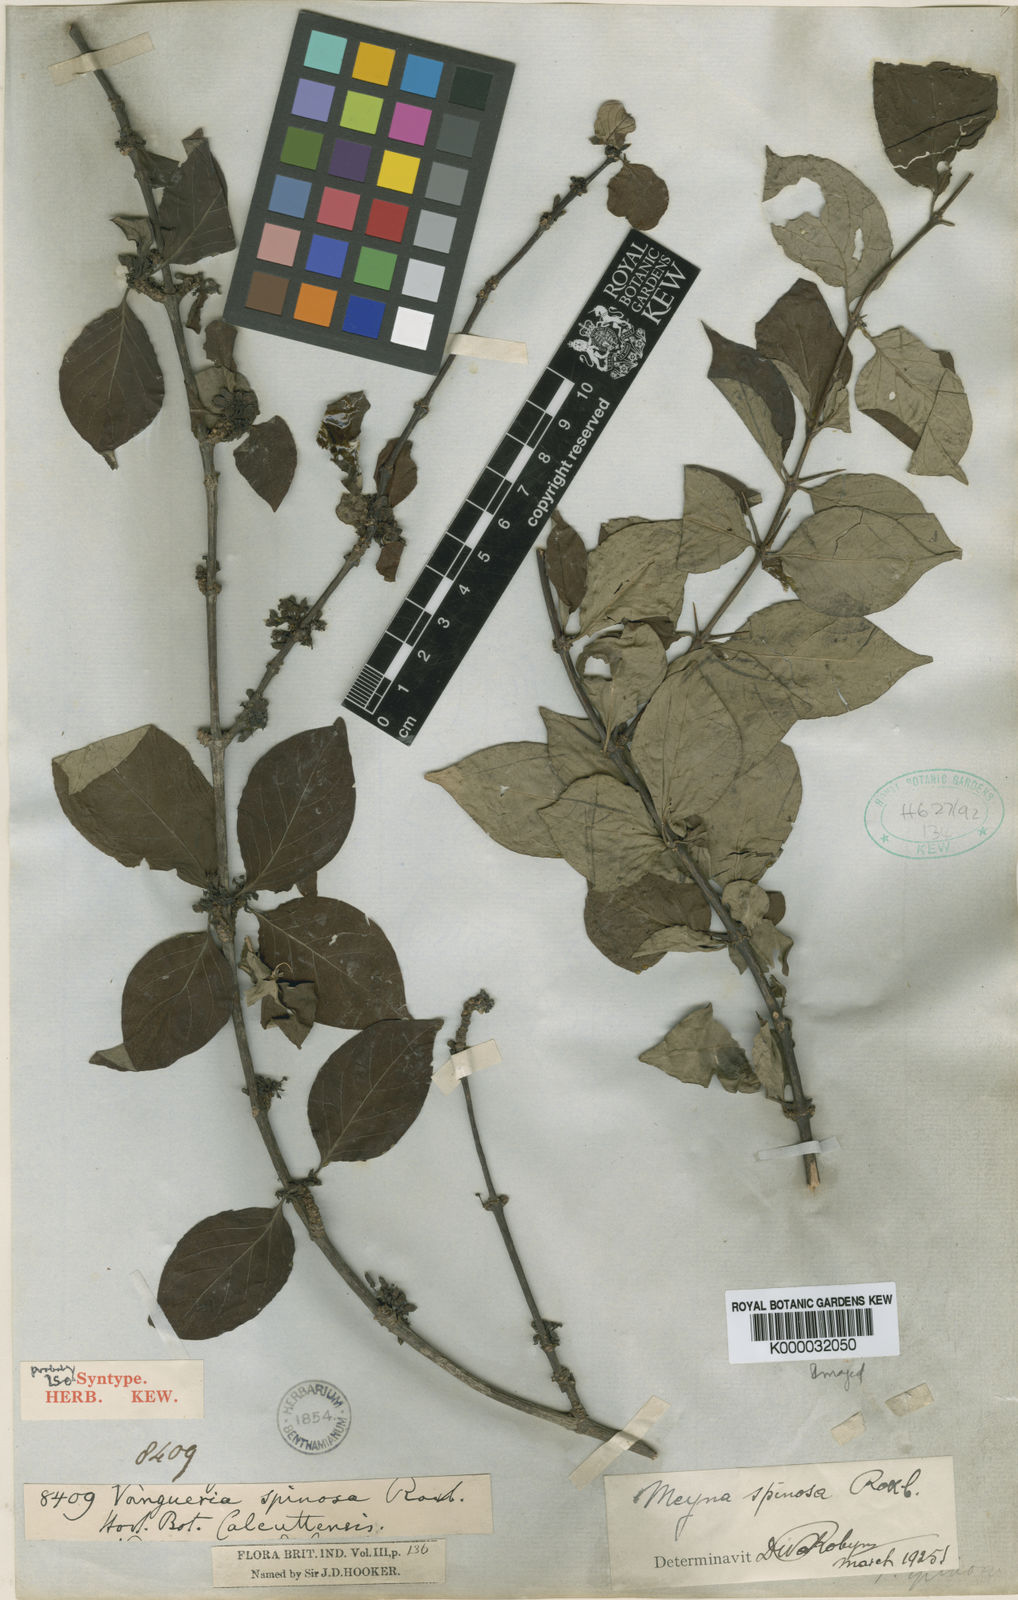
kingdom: Plantae
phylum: Tracheophyta
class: Magnoliopsida
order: Gentianales
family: Rubiaceae
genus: Meyna
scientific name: Meyna
